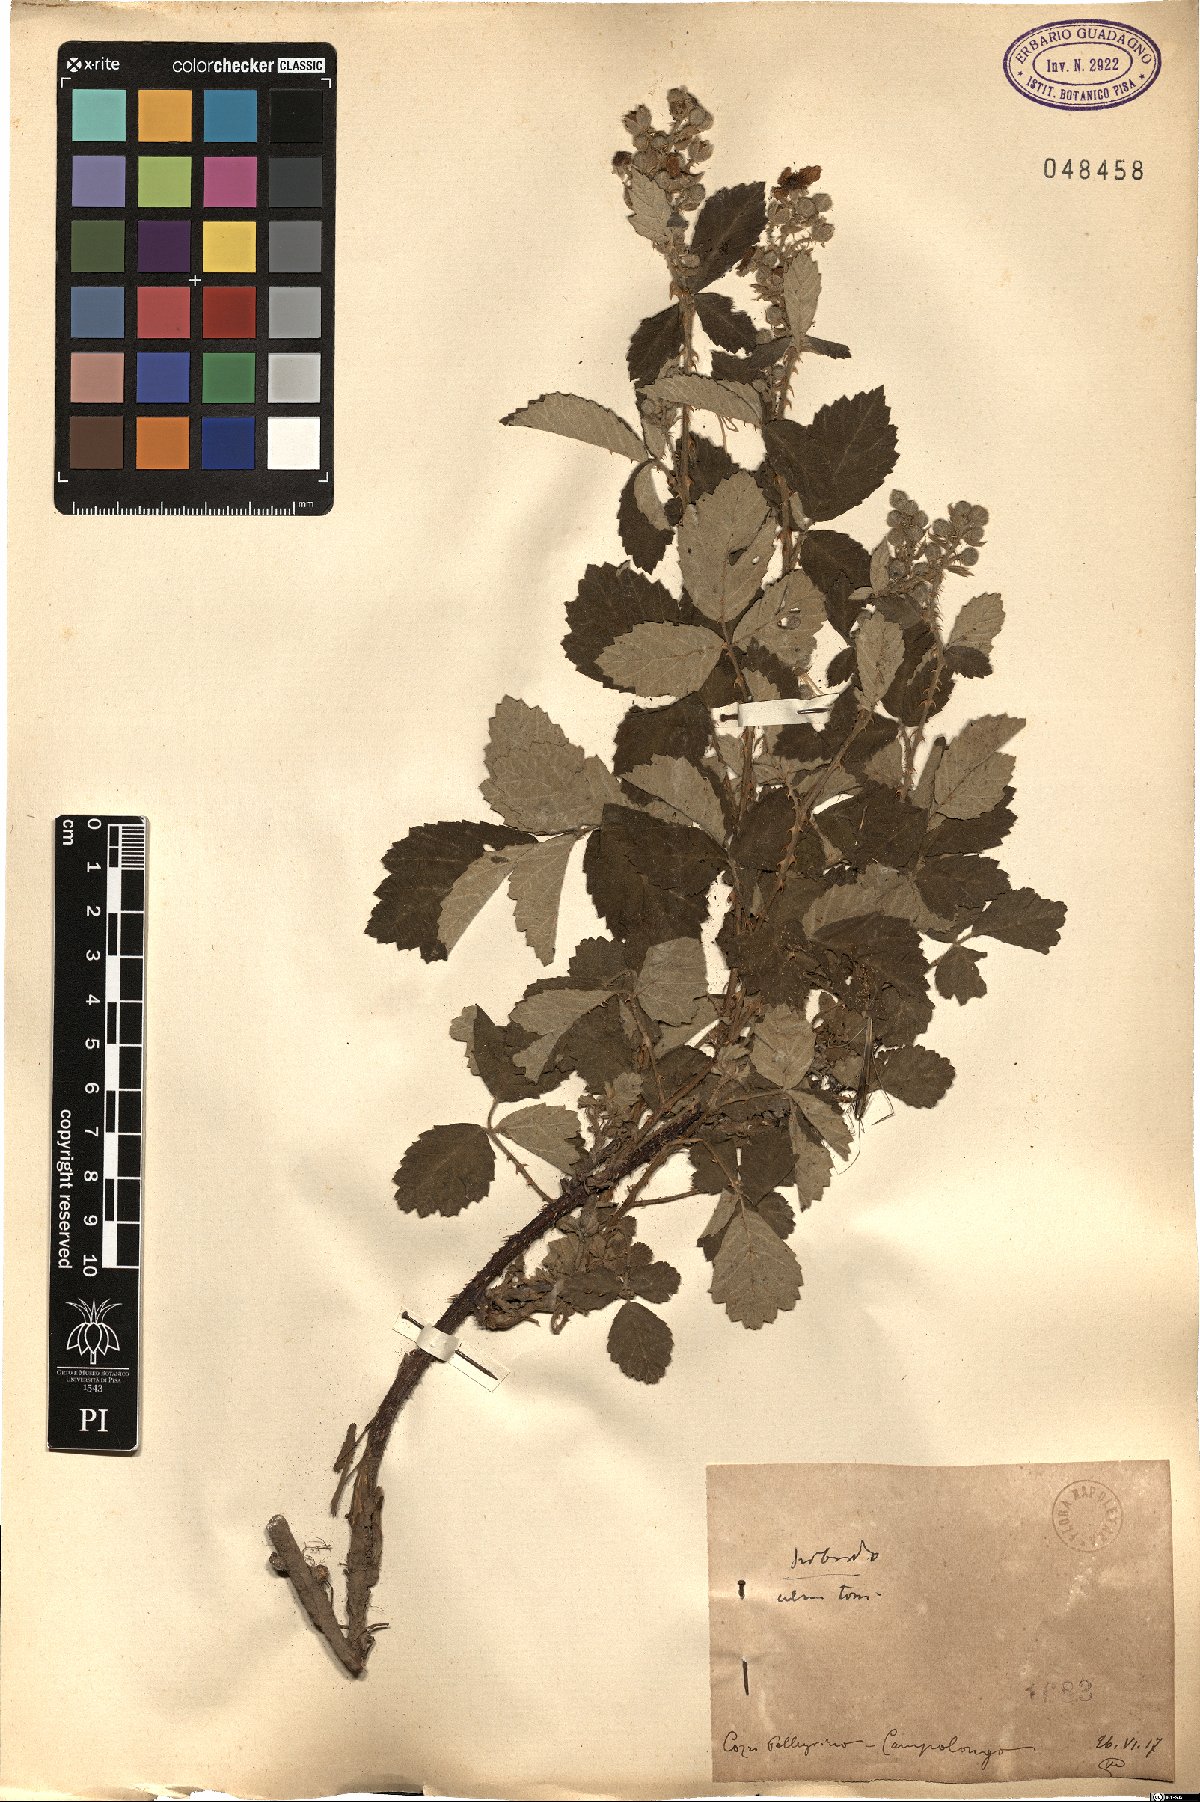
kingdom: Plantae
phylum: Tracheophyta
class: Magnoliopsida
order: Rosales
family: Rosaceae
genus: Rubus
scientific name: Rubus
